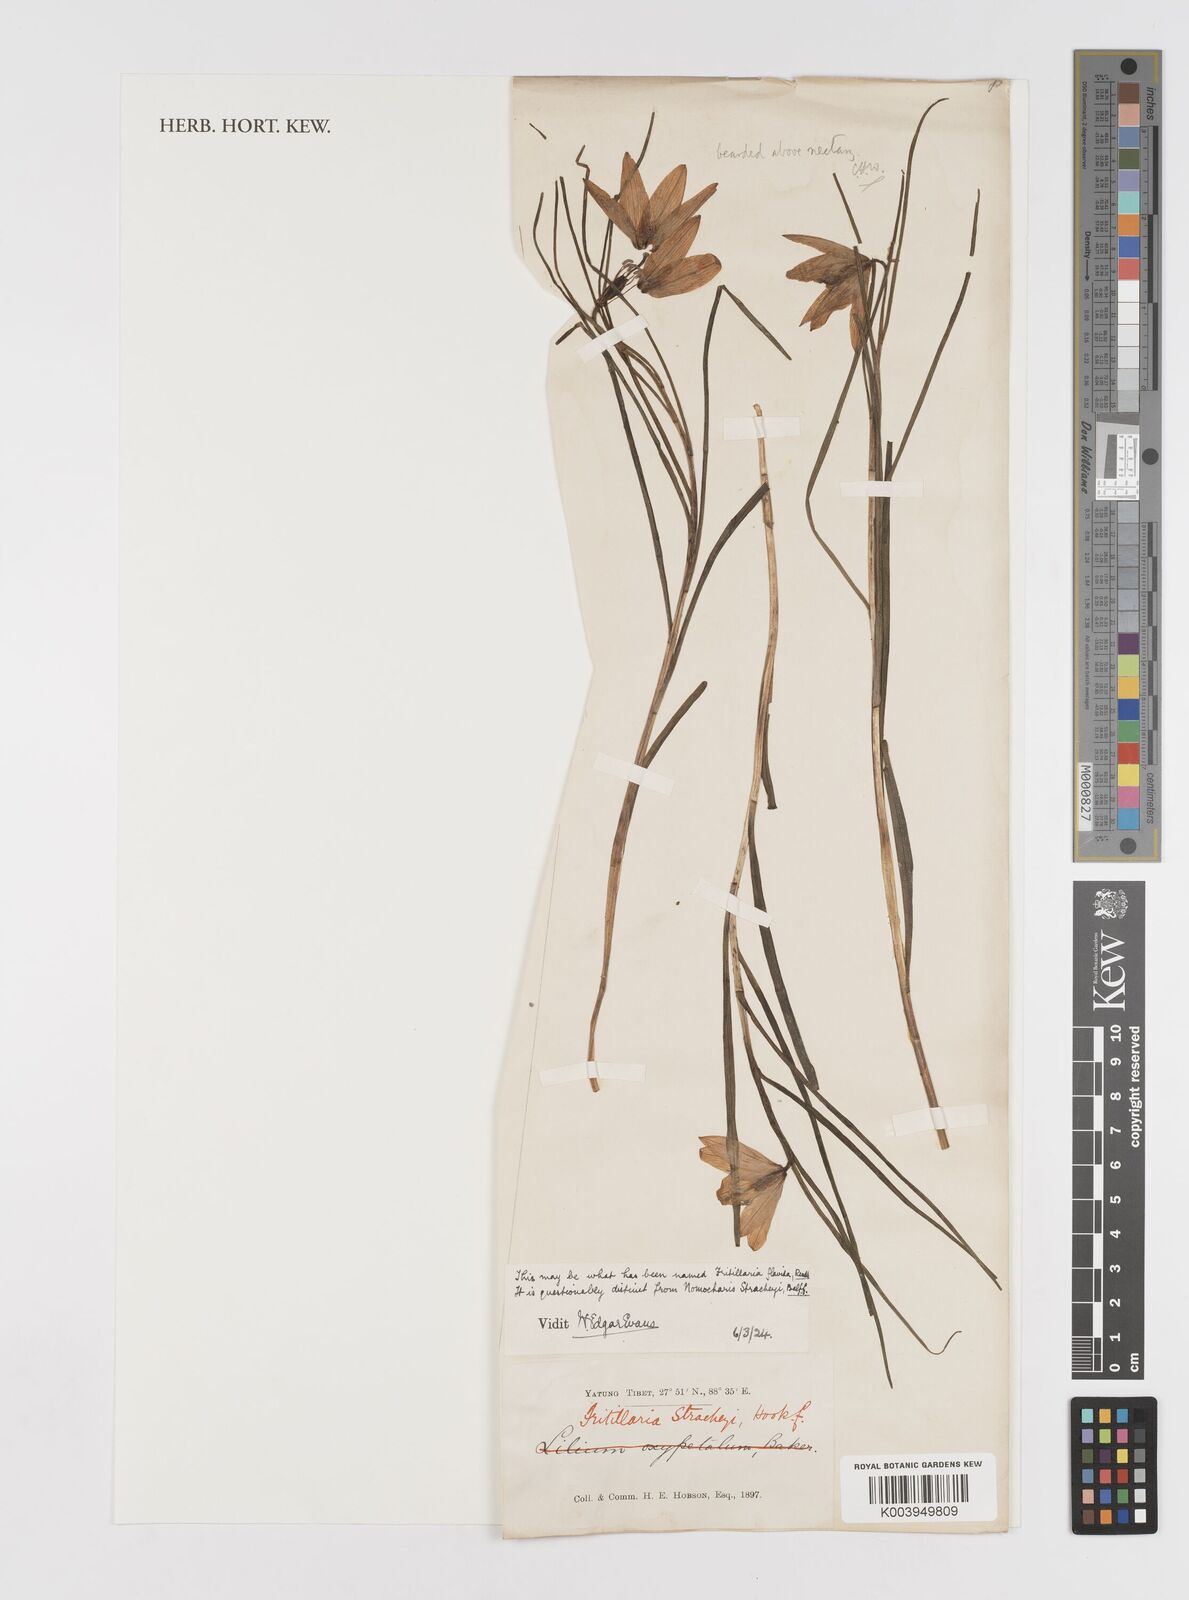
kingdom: Plantae
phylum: Tracheophyta
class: Liliopsida
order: Liliales
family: Liliaceae
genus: Lilium
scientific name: Lilium nanum
